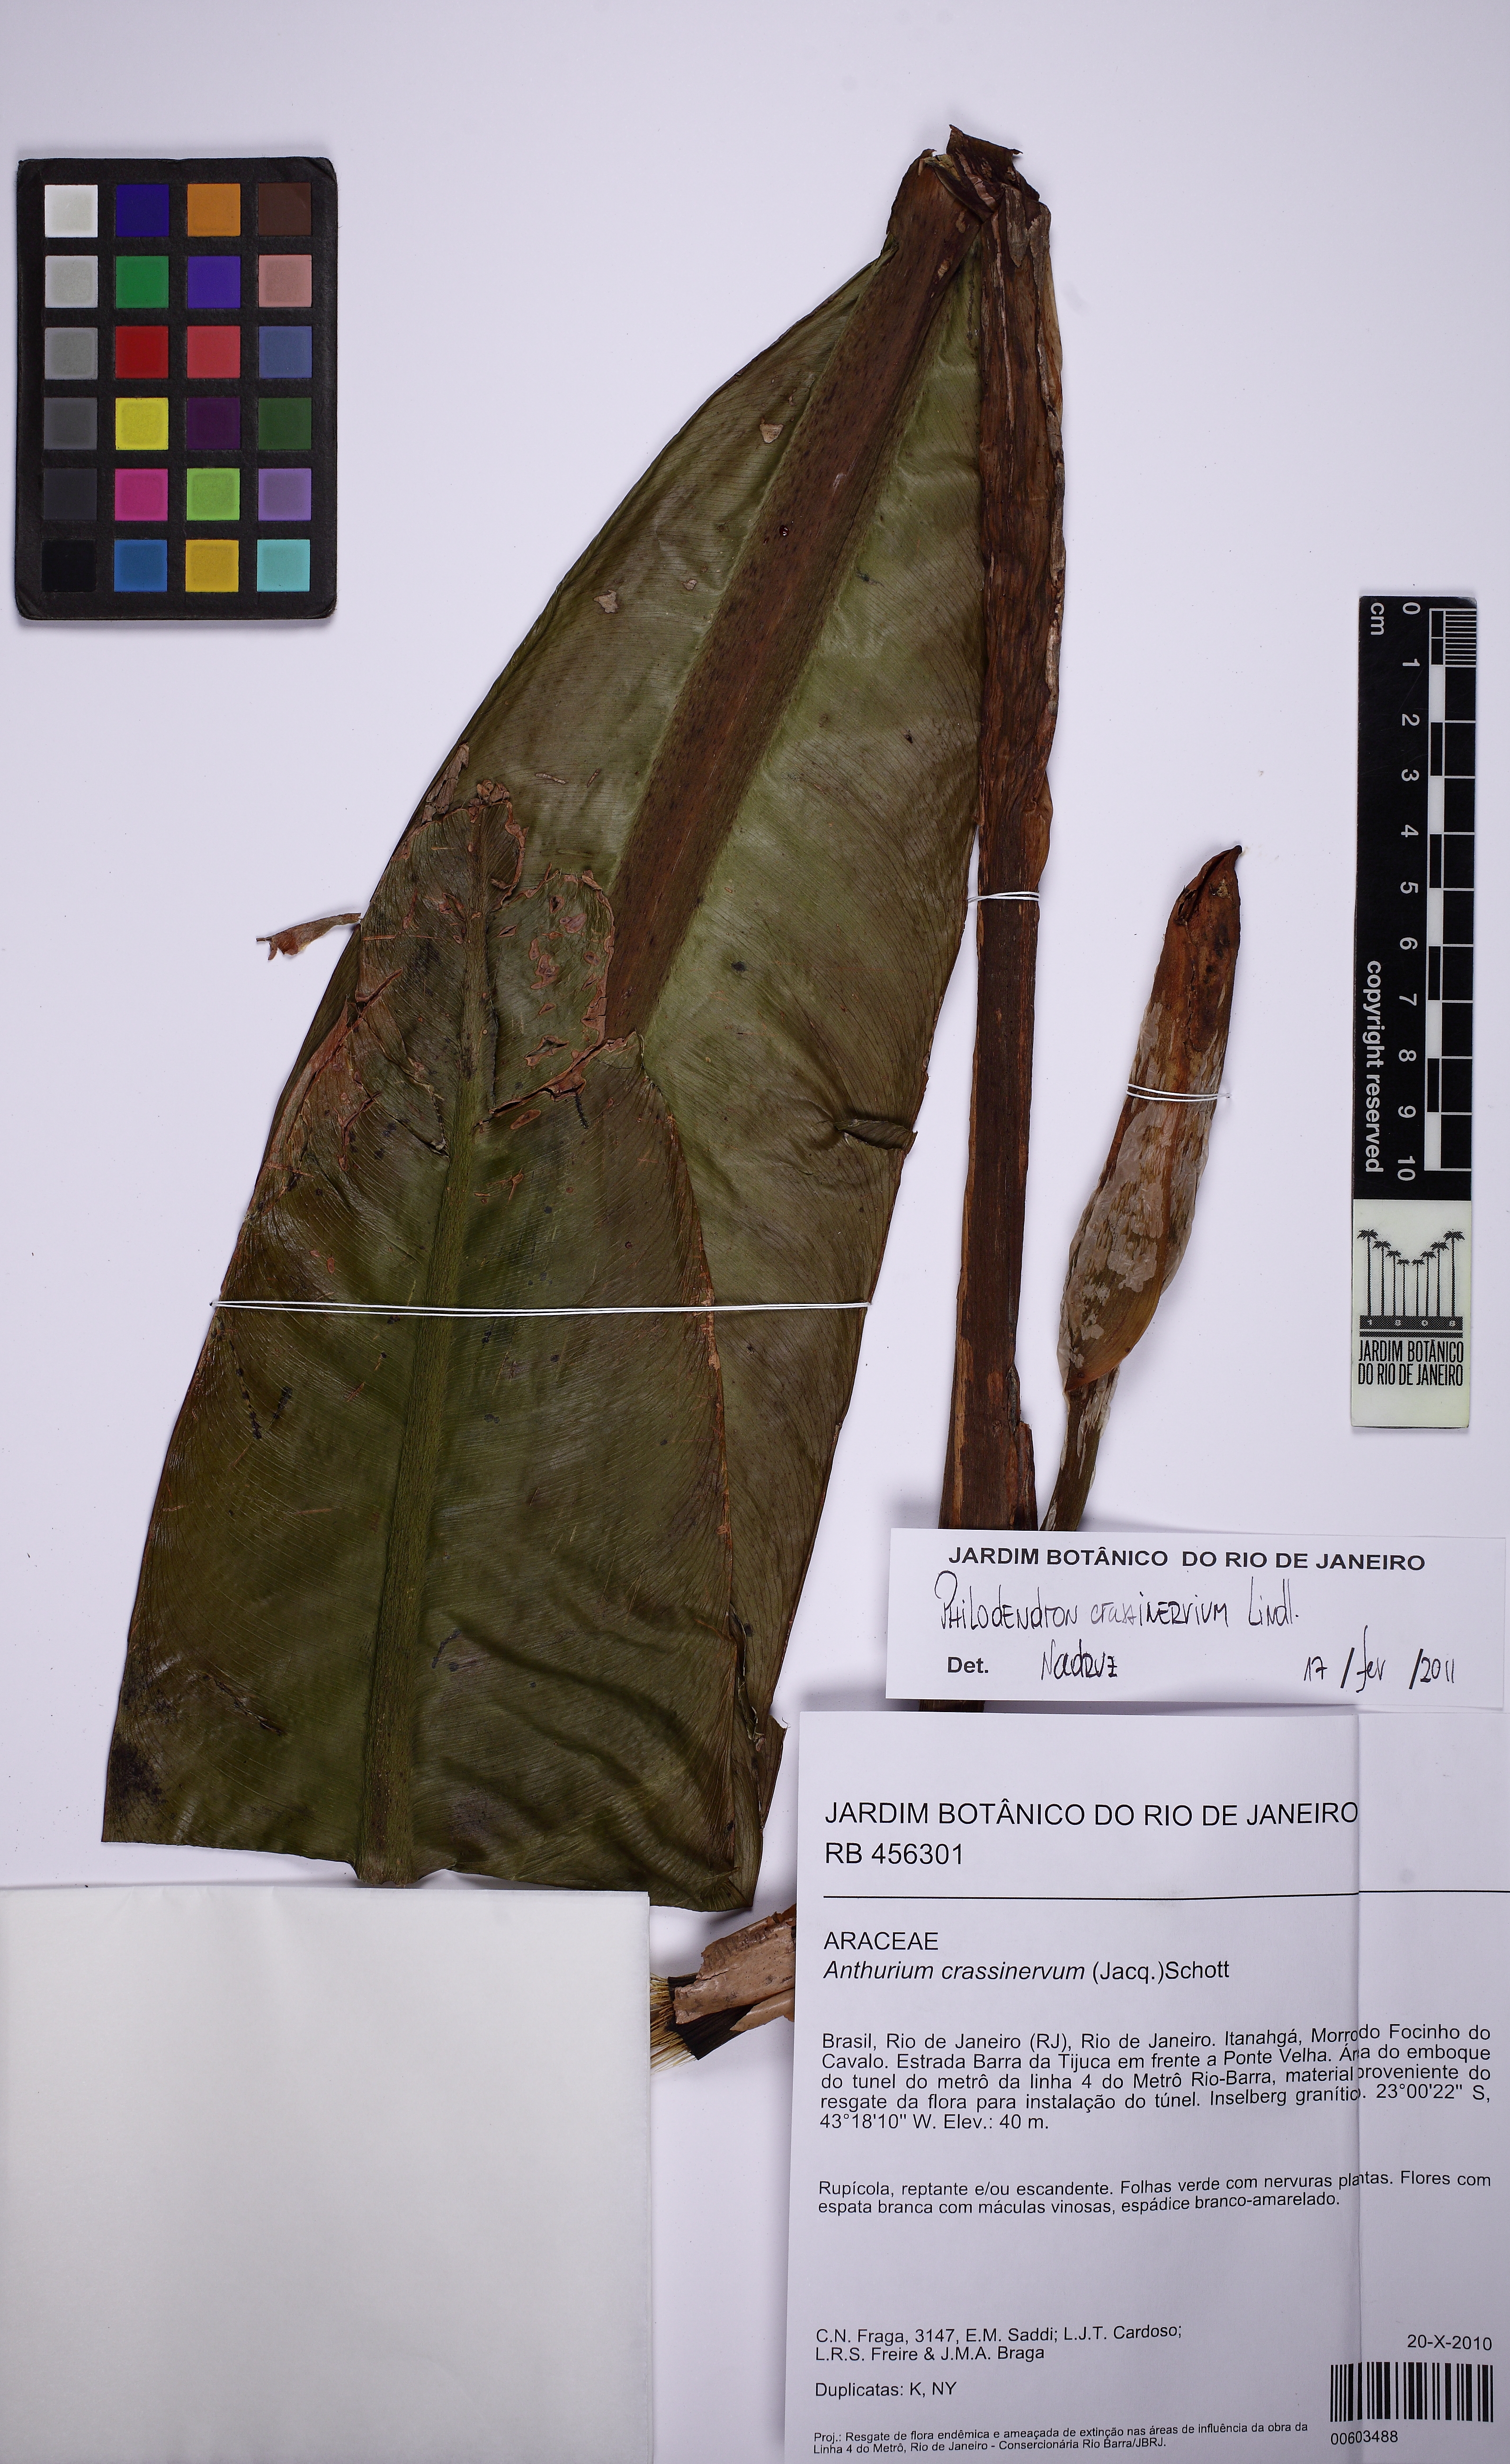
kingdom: Plantae
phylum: Tracheophyta
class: Liliopsida
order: Alismatales
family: Araceae
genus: Philodendron
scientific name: Philodendron crassinervium
